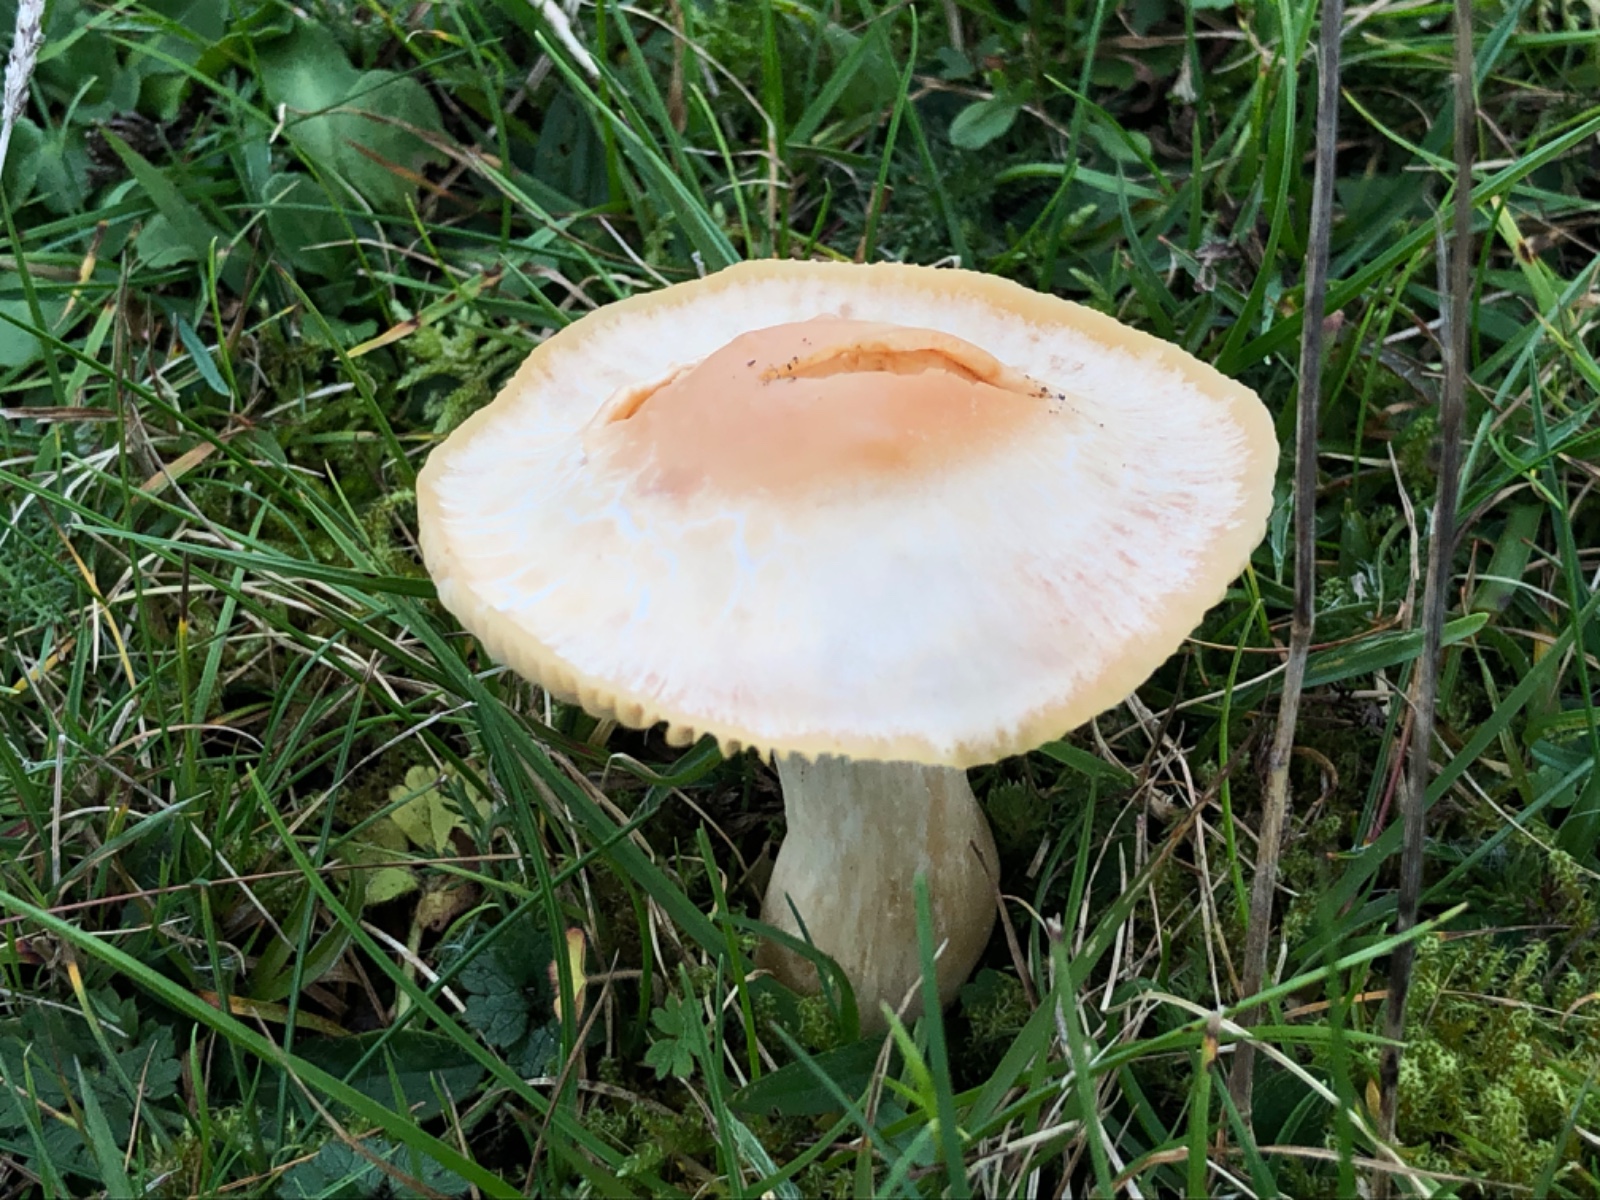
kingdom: Fungi
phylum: Basidiomycota
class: Agaricomycetes
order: Agaricales
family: Hygrophoraceae
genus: Cuphophyllus
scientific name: Cuphophyllus pratensis
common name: eng-vokshat
